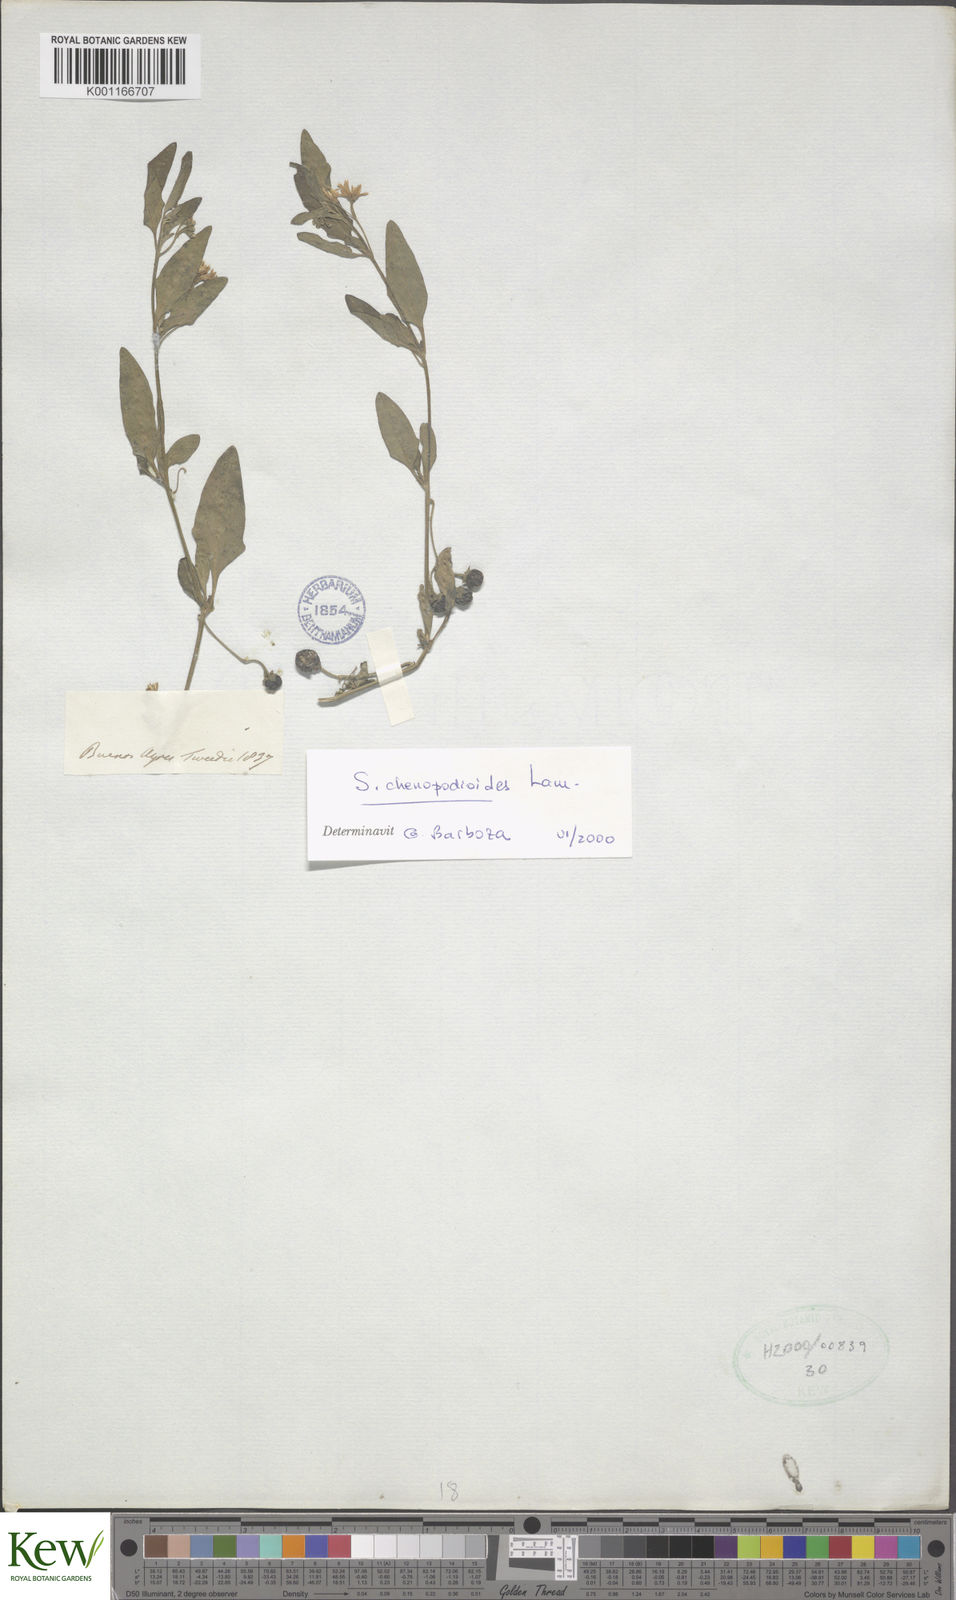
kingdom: Plantae
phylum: Tracheophyta
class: Magnoliopsida
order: Solanales
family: Solanaceae
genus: Solanum
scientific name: Solanum chenopodioides
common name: Tall nightshade
